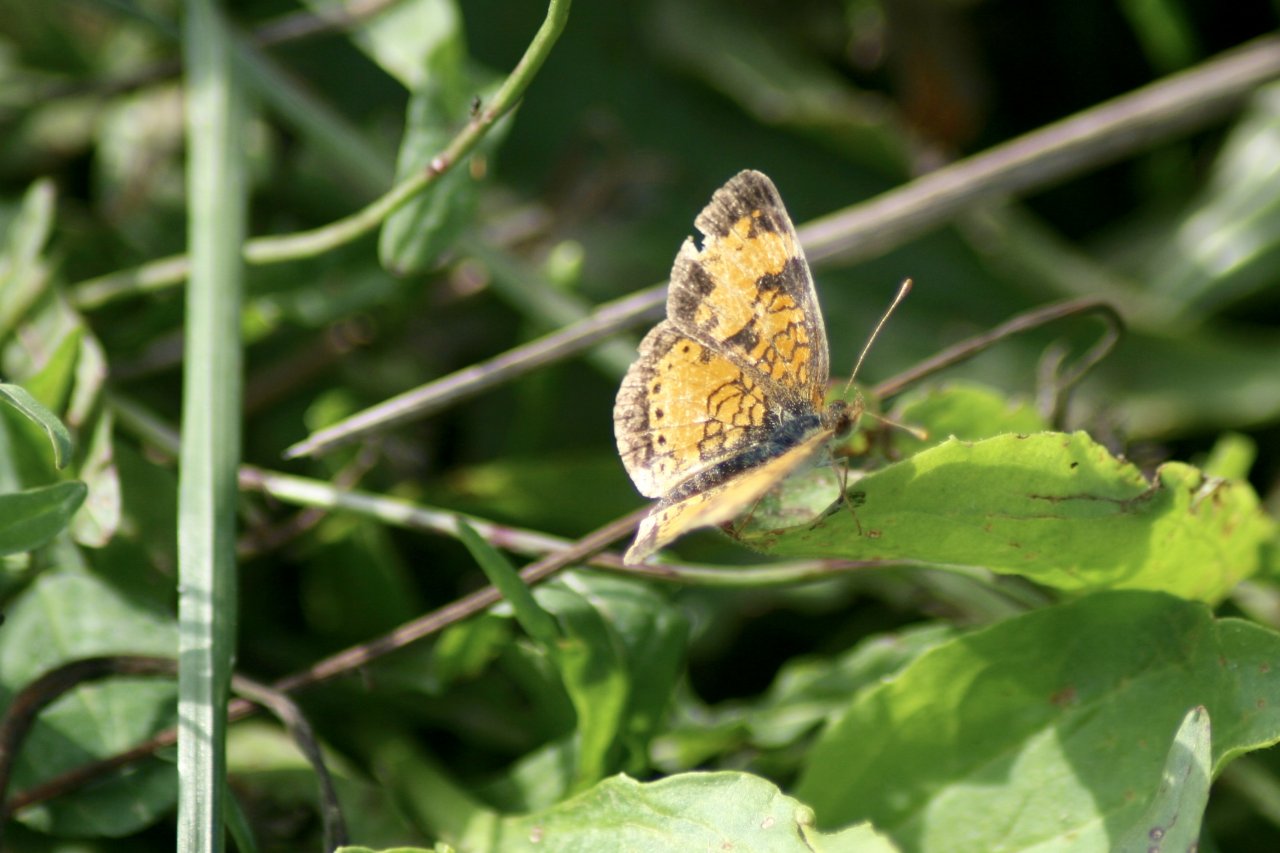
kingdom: Animalia
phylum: Arthropoda
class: Insecta
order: Lepidoptera
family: Nymphalidae
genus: Phyciodes
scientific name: Phyciodes tharos
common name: Northern Crescent
